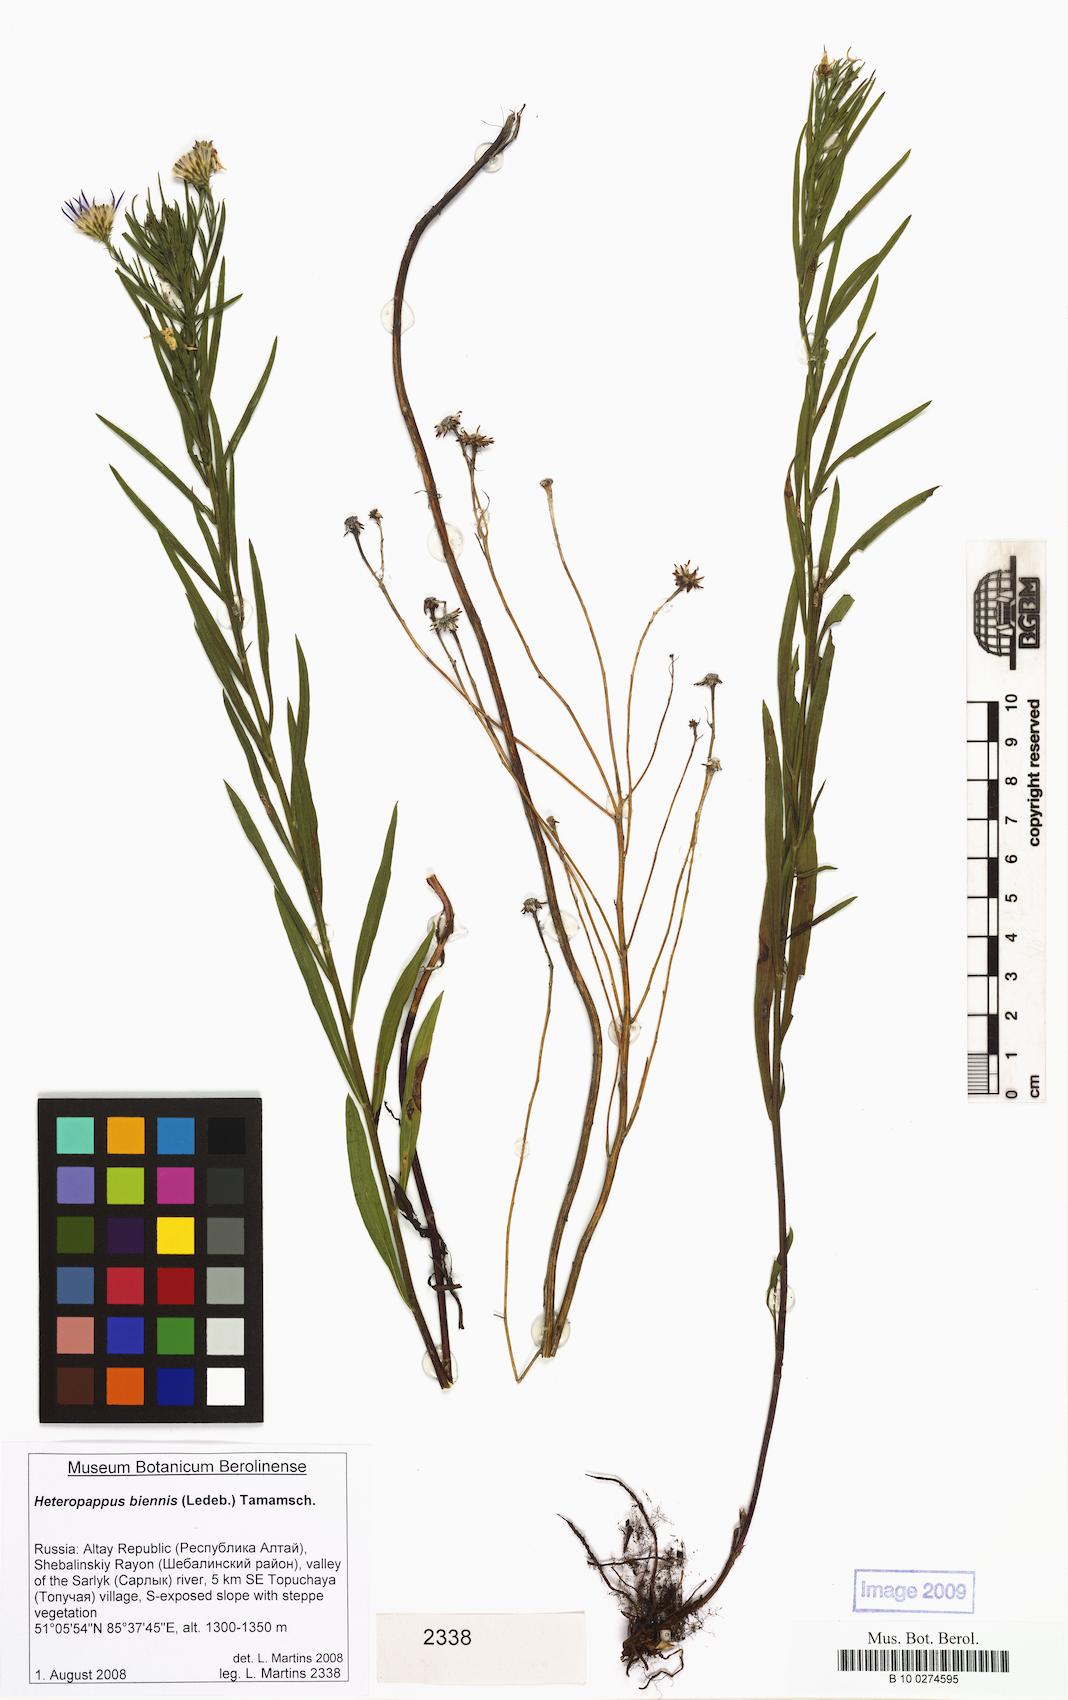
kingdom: Plantae
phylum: Tracheophyta
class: Magnoliopsida
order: Asterales
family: Asteraceae
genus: Heteropappus
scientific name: Heteropappus biennis
